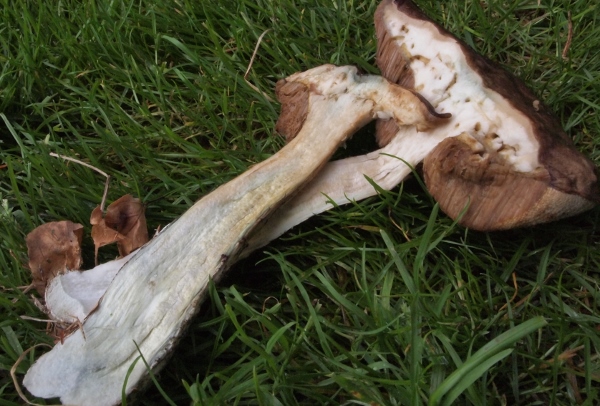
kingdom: Fungi
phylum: Basidiomycota
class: Agaricomycetes
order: Boletales
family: Boletaceae
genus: Leccinum
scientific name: Leccinum
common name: skælrørhat
